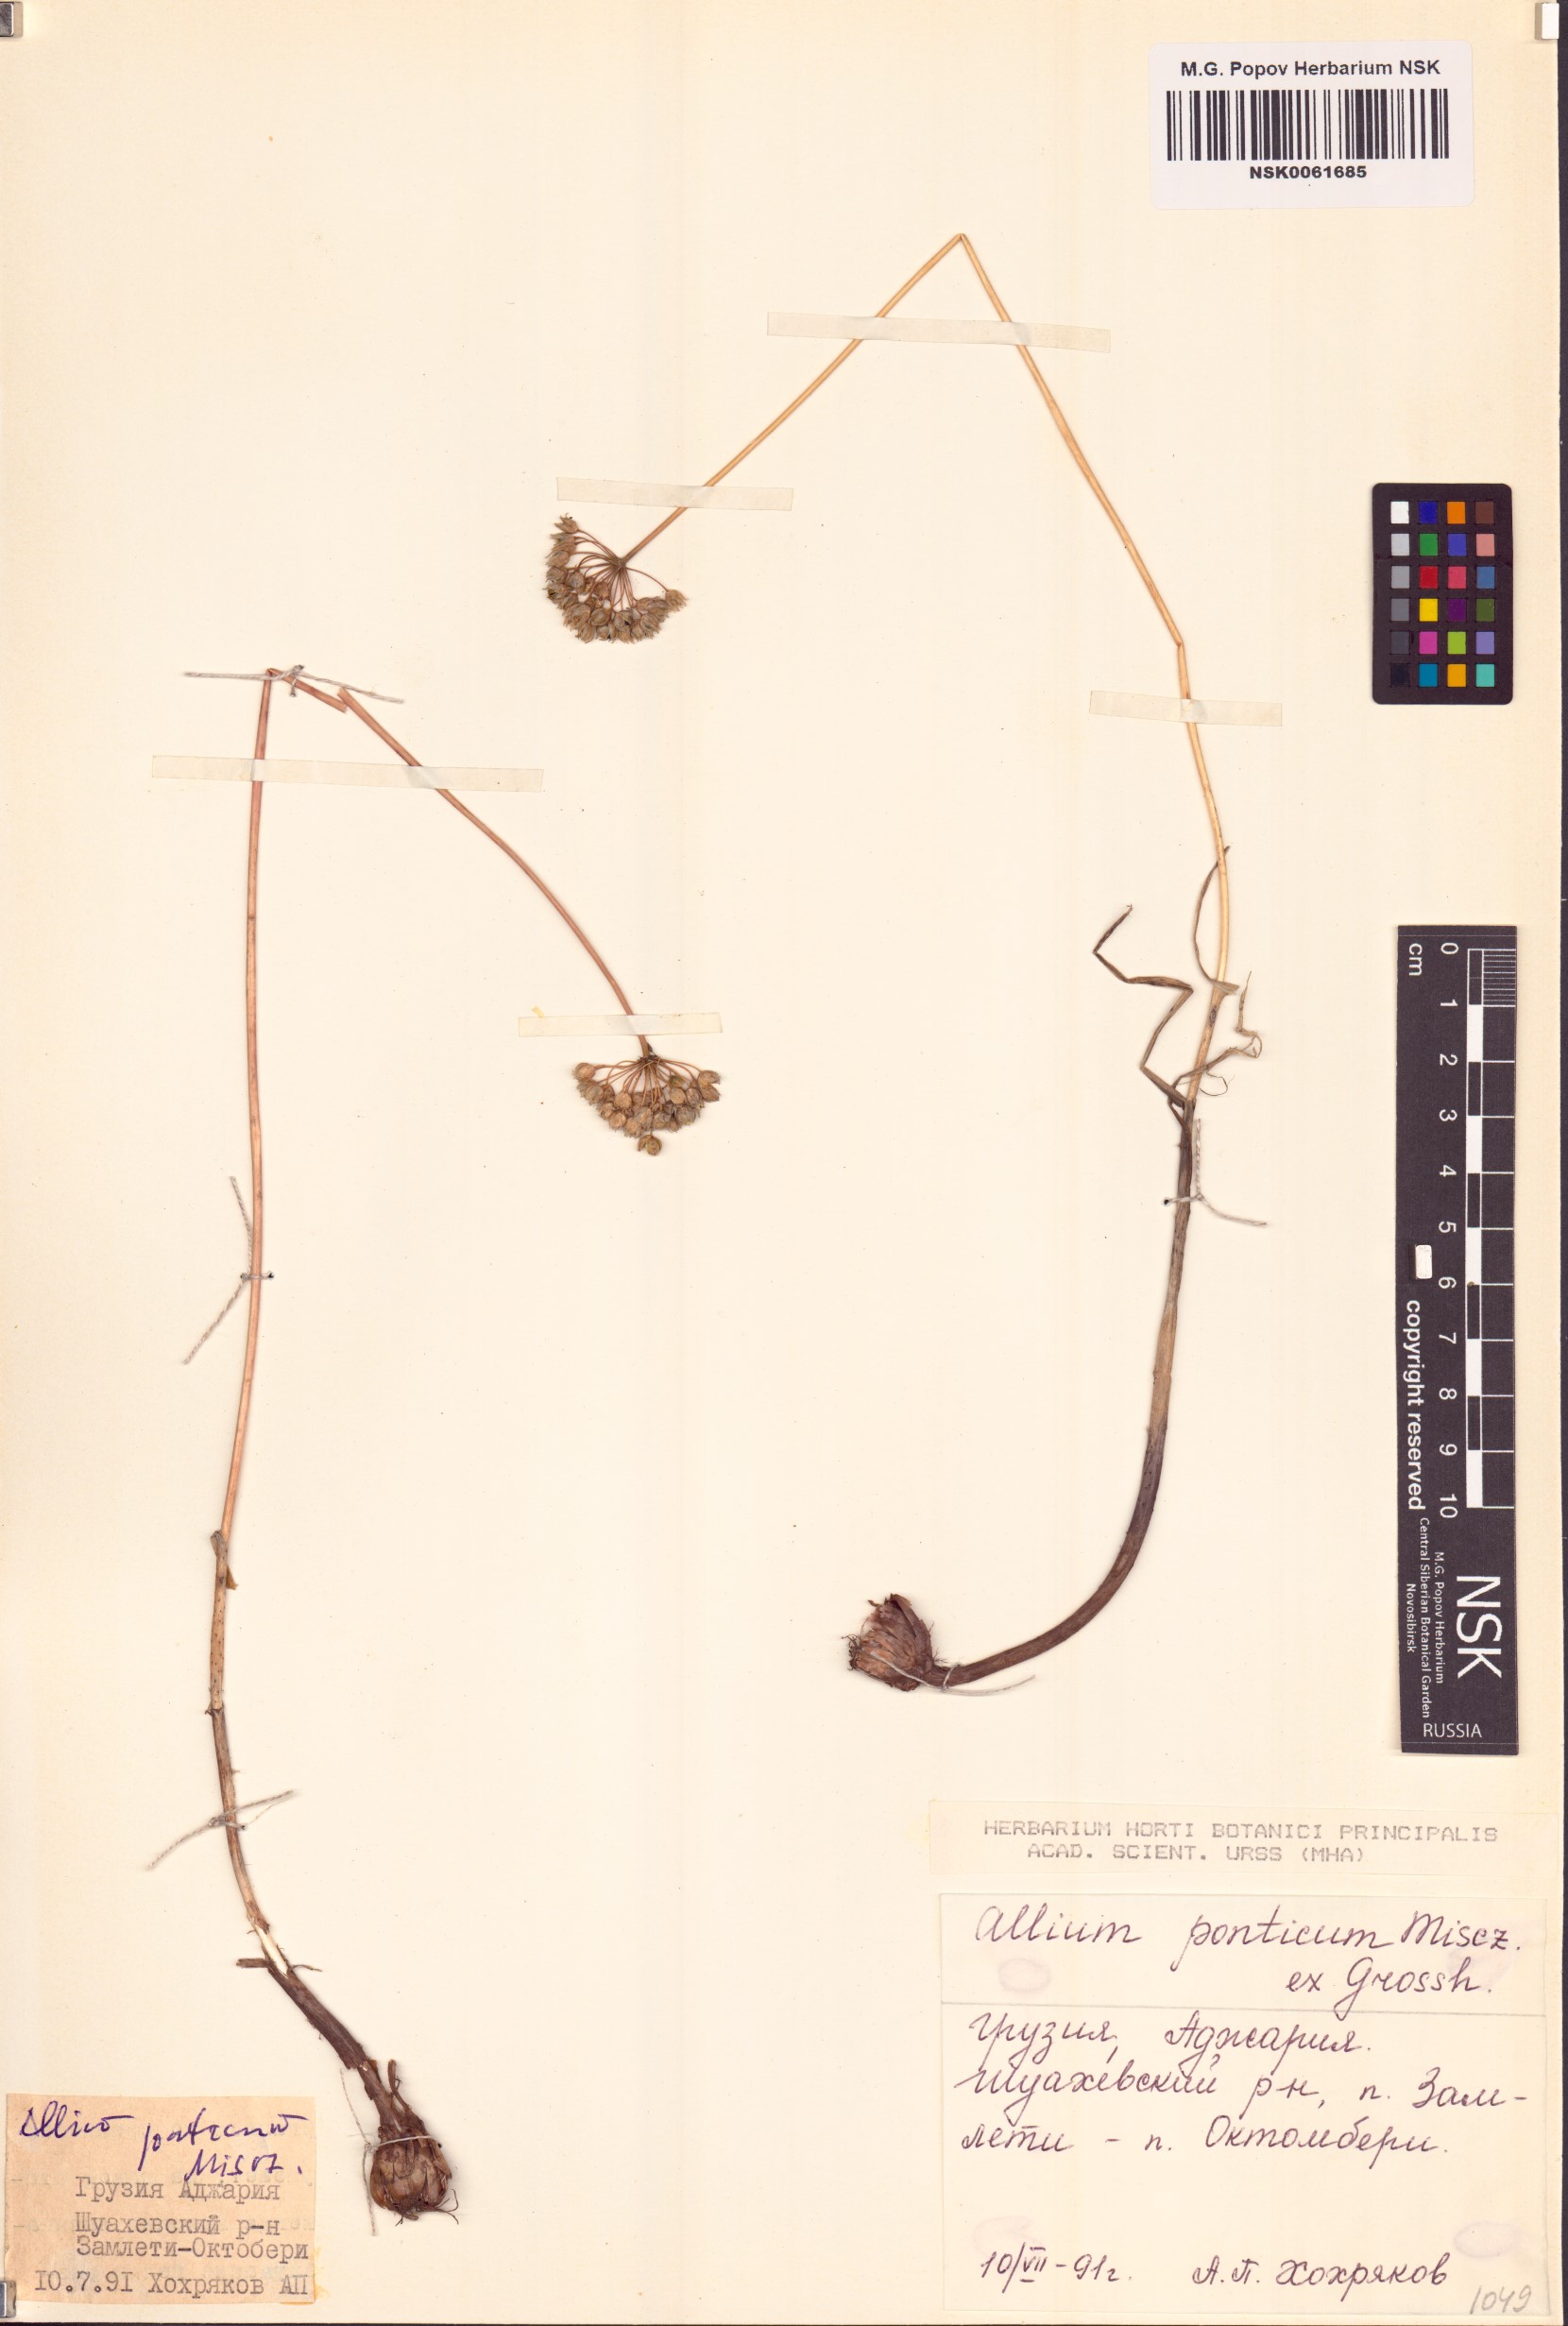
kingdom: Plantae
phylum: Tracheophyta
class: Liliopsida
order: Asparagales
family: Amaryllidaceae
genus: Allium
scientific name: Allium ponticum
